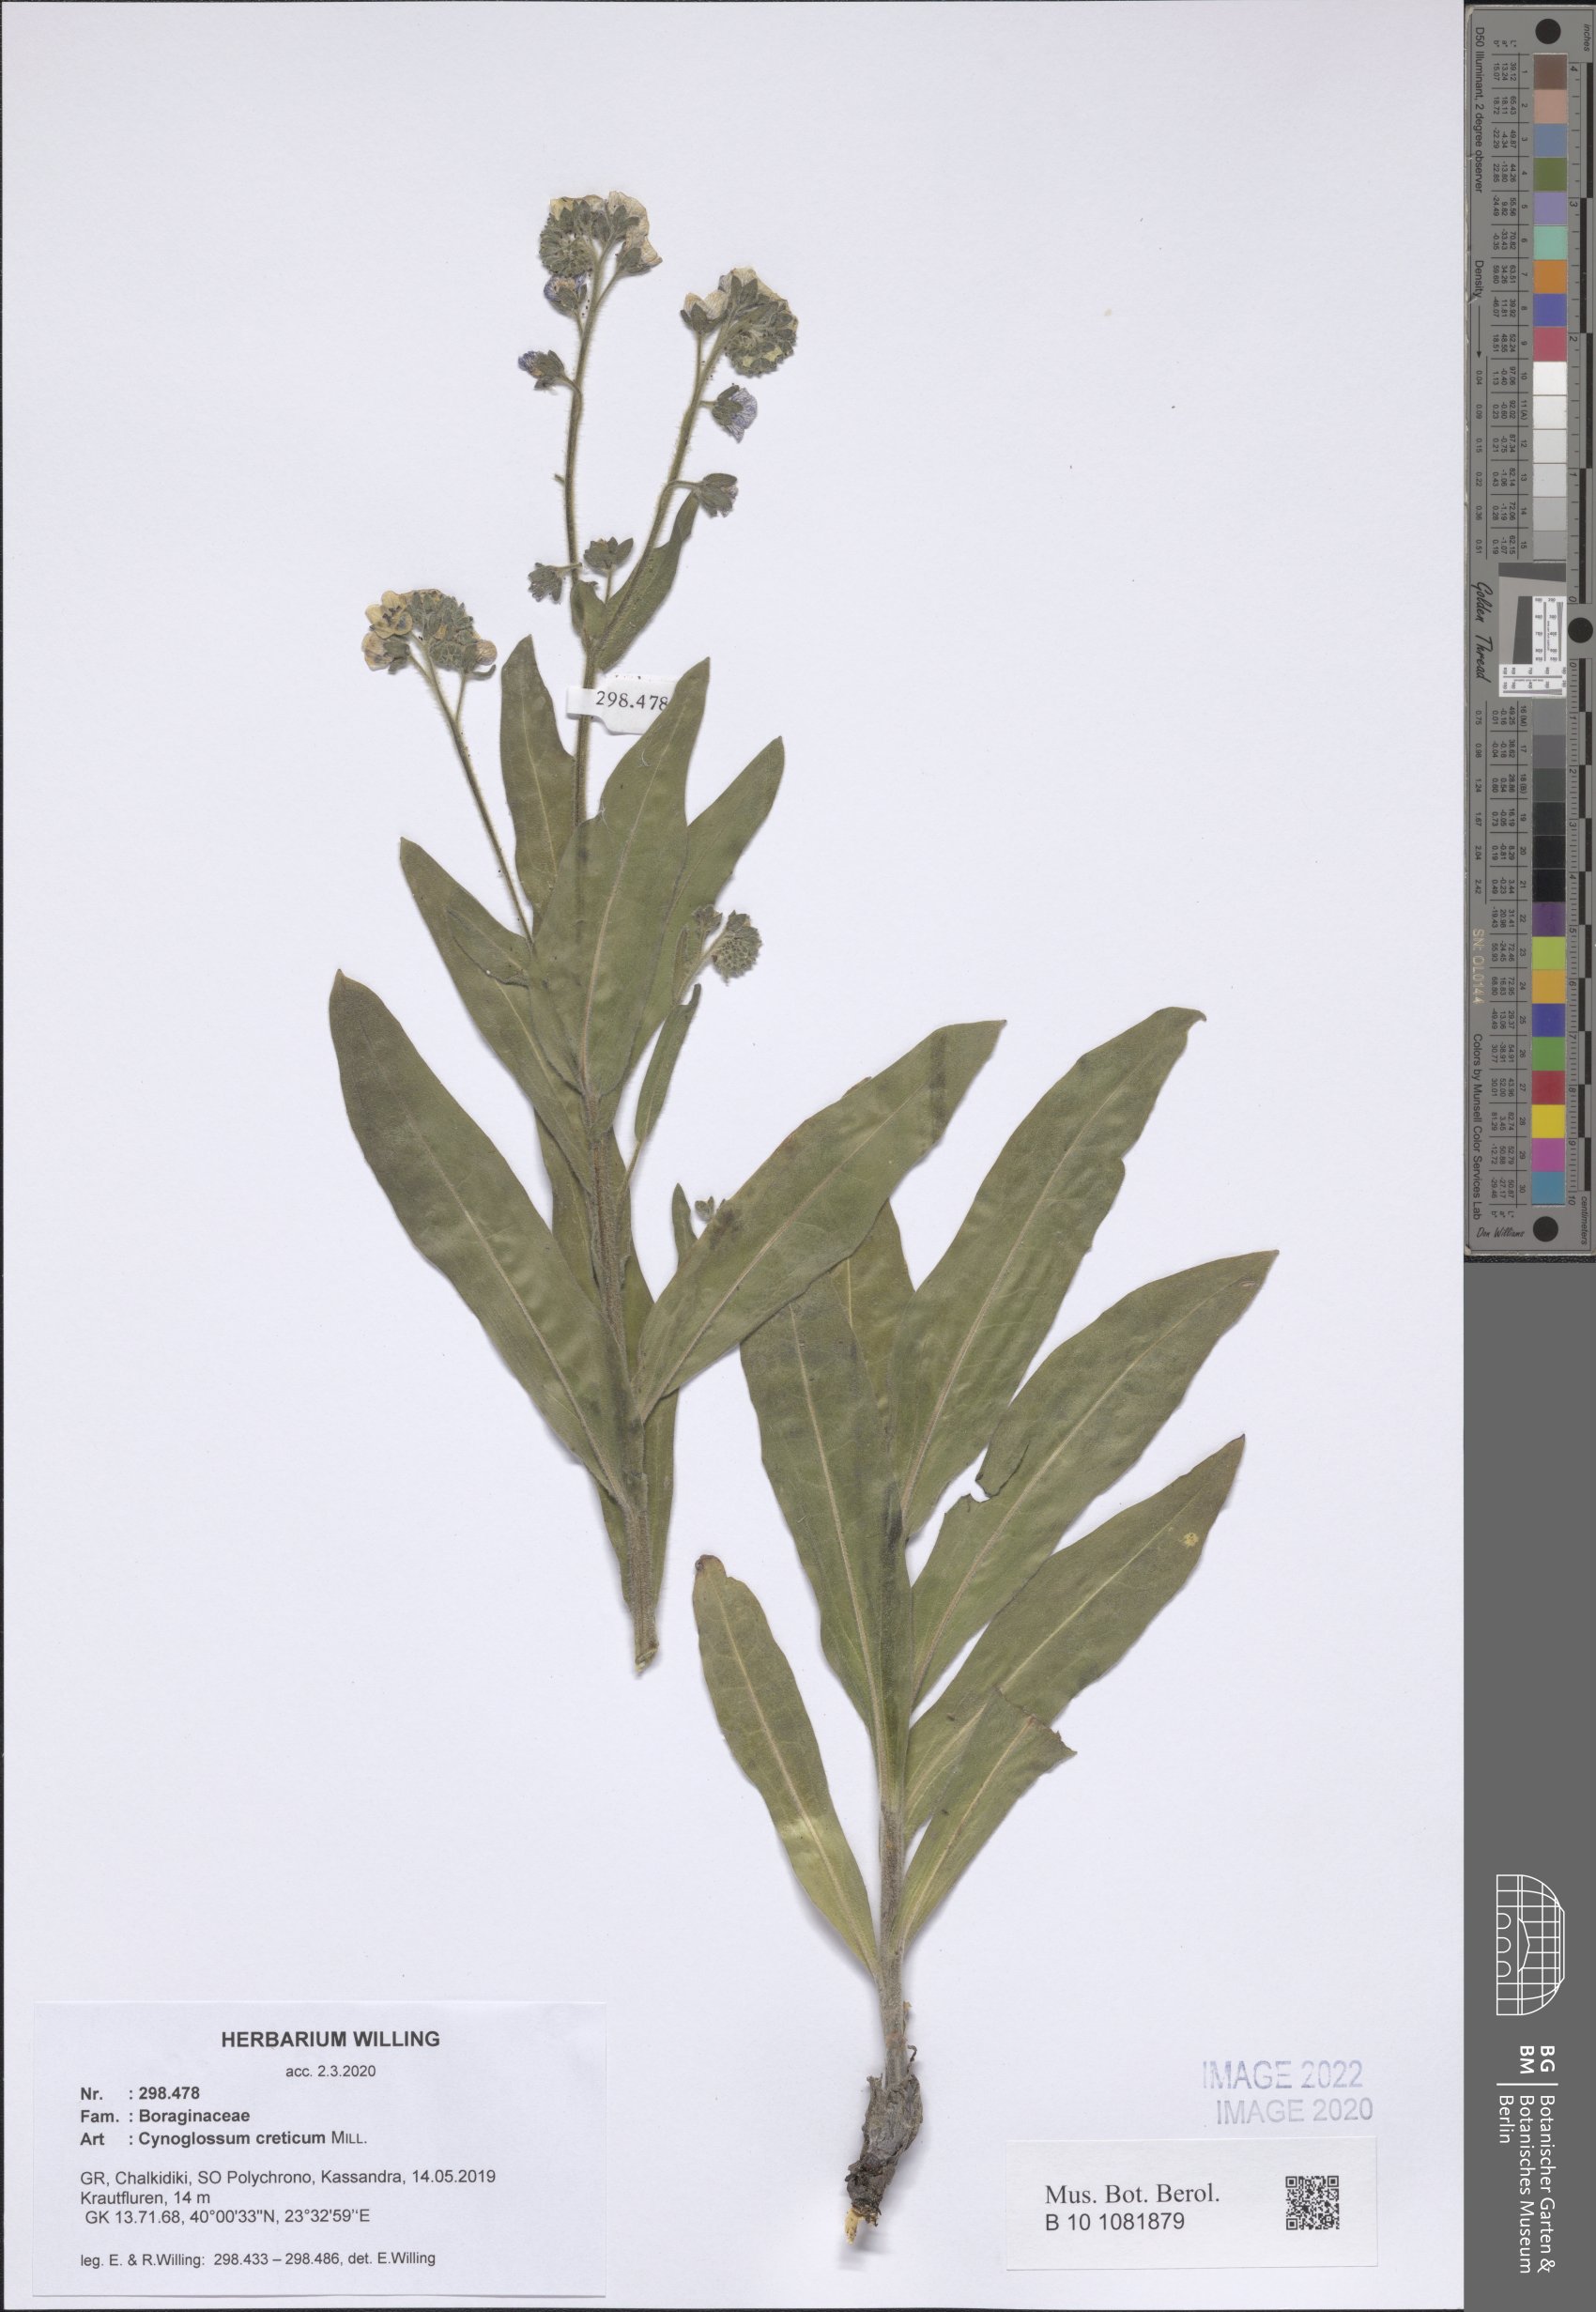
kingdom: Plantae
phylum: Tracheophyta
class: Magnoliopsida
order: Boraginales
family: Boraginaceae
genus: Cynoglossum
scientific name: Cynoglossum creticum
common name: Blue hound's tongue
